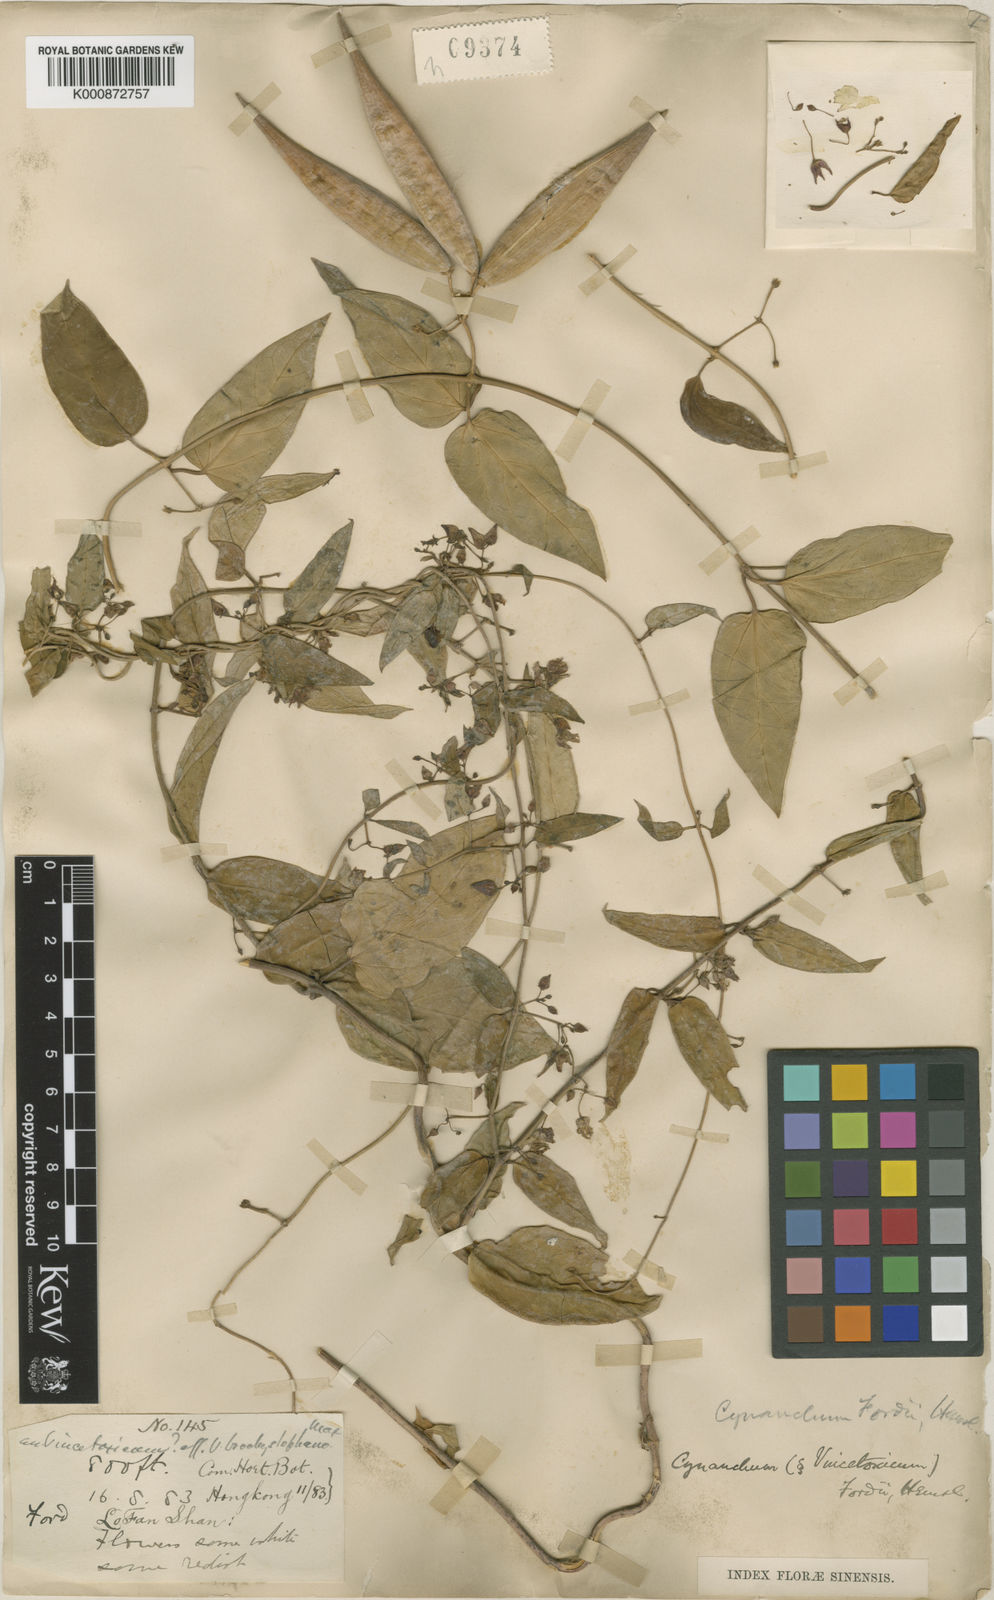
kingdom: Plantae
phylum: Tracheophyta
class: Magnoliopsida
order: Gentianales
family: Apocynaceae
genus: Vincetoxicum
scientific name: Vincetoxicum fordii
